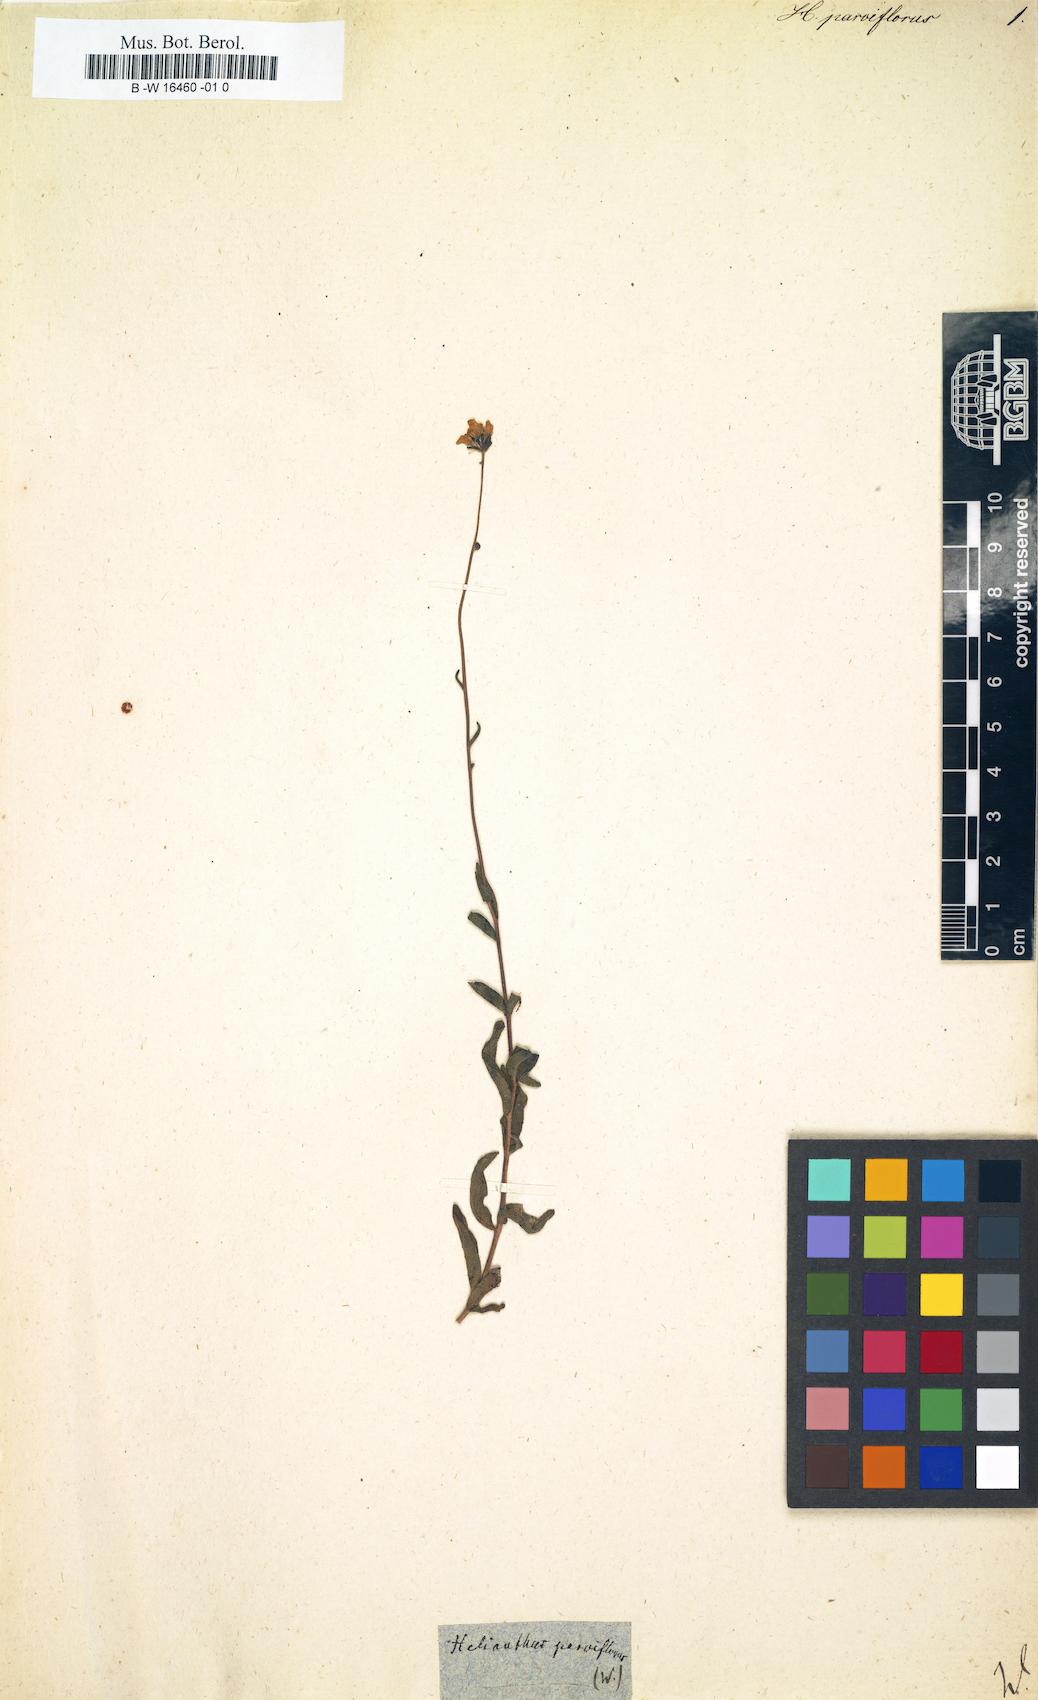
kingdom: Plantae
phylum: Tracheophyta
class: Magnoliopsida
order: Asterales
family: Asteraceae
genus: Helianthus
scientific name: Helianthus parviflorus
